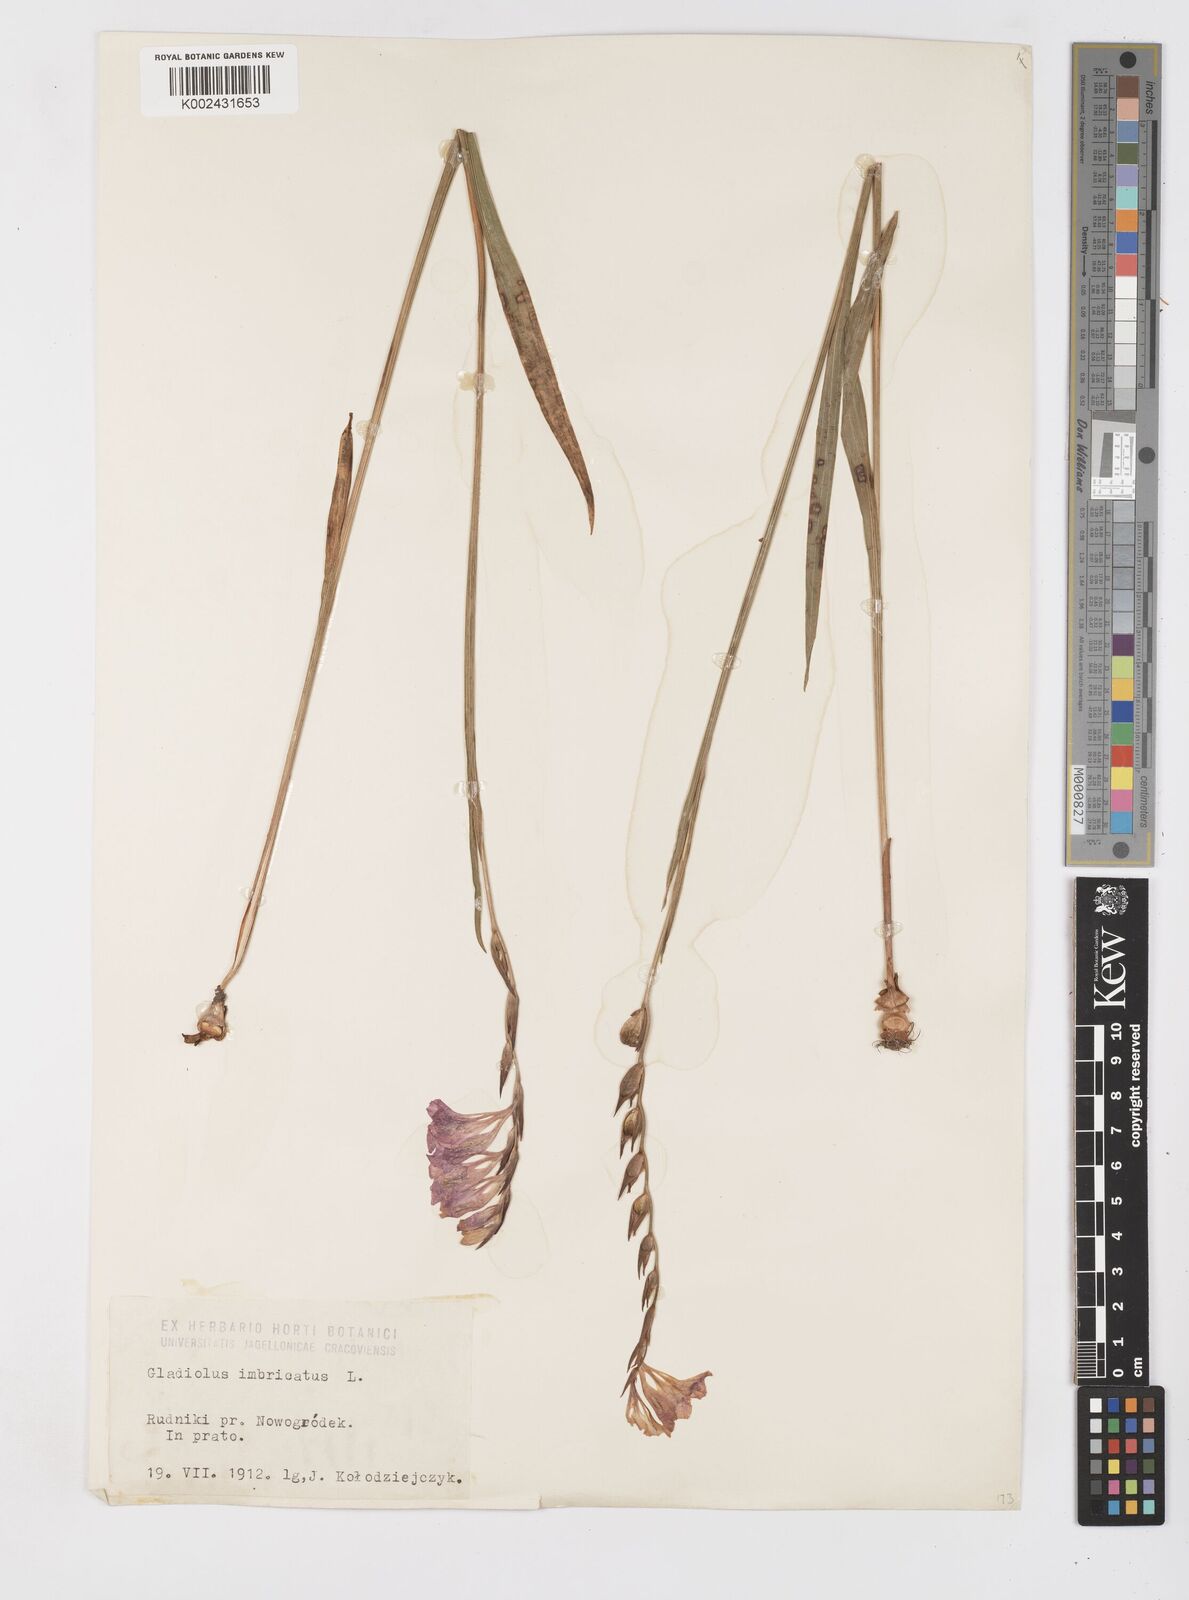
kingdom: Plantae
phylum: Tracheophyta
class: Liliopsida
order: Asparagales
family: Iridaceae
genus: Gladiolus
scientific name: Gladiolus imbricatus
